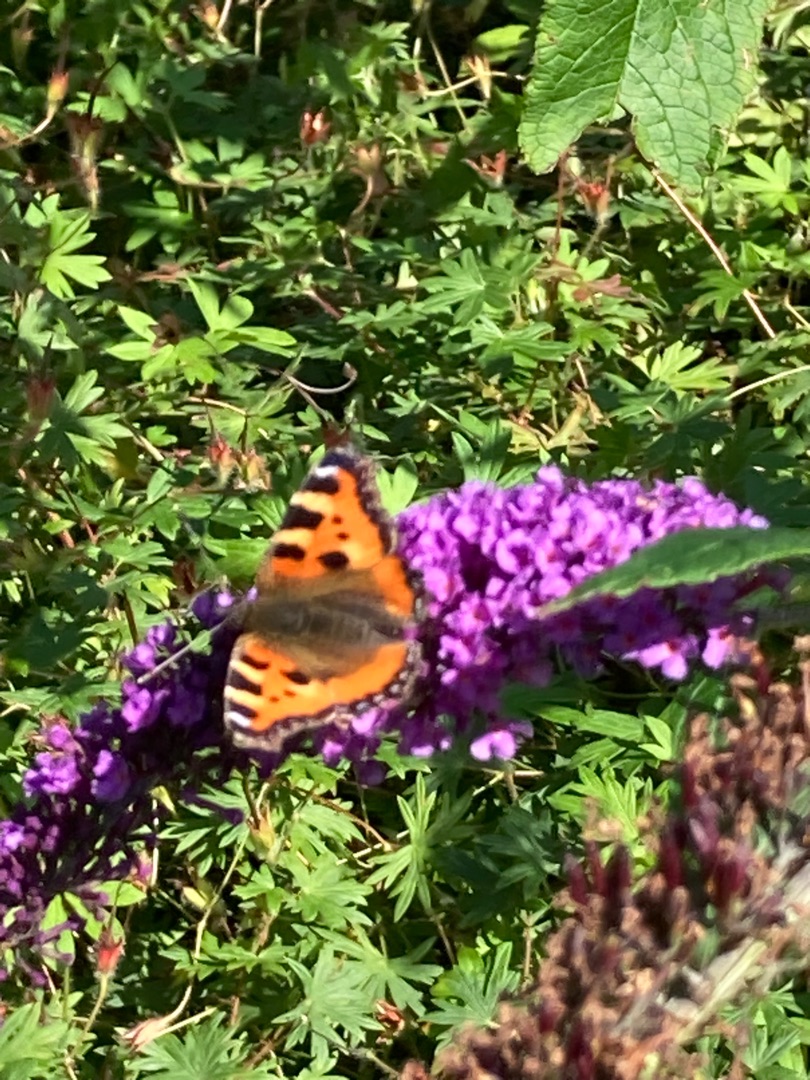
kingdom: Animalia
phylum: Arthropoda
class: Insecta
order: Lepidoptera
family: Nymphalidae
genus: Aglais
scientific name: Aglais urticae
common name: Nældens takvinge
